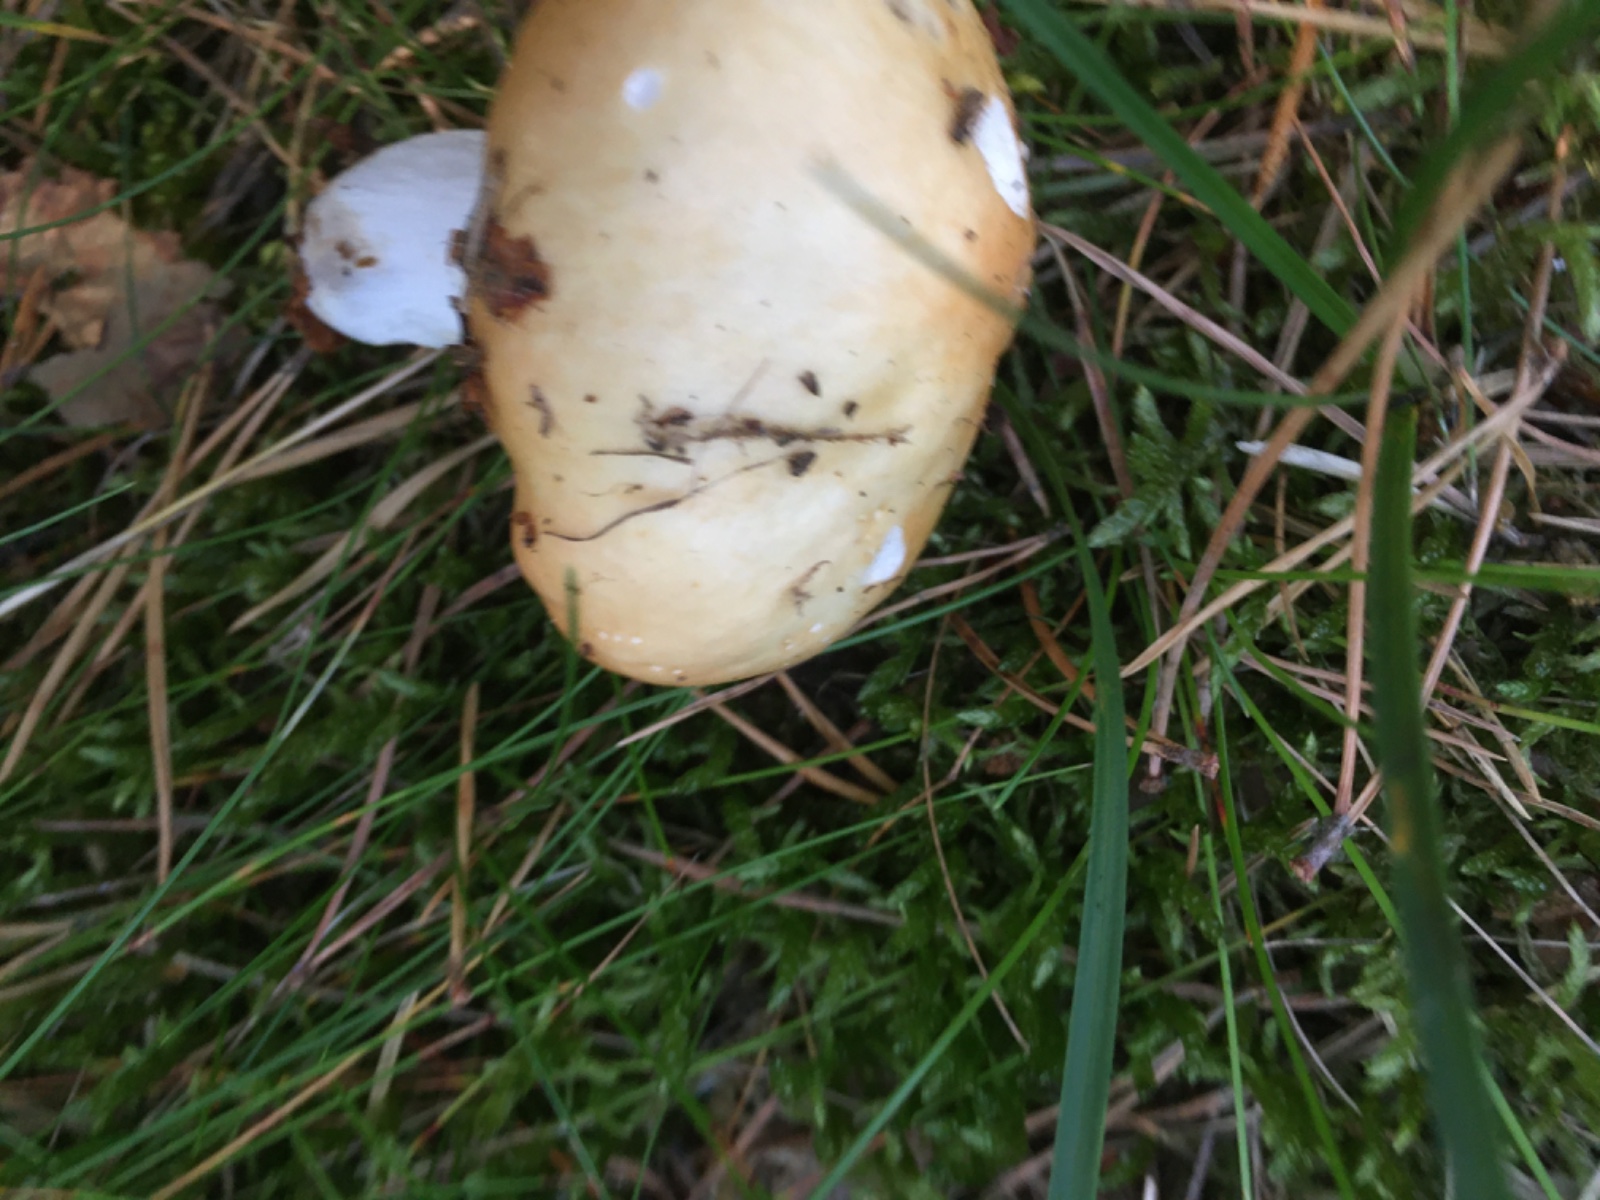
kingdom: Fungi
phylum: Basidiomycota
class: Agaricomycetes
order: Russulales
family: Russulaceae
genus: Russula
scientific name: Russula ochroleuca
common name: okkergul skørhat
